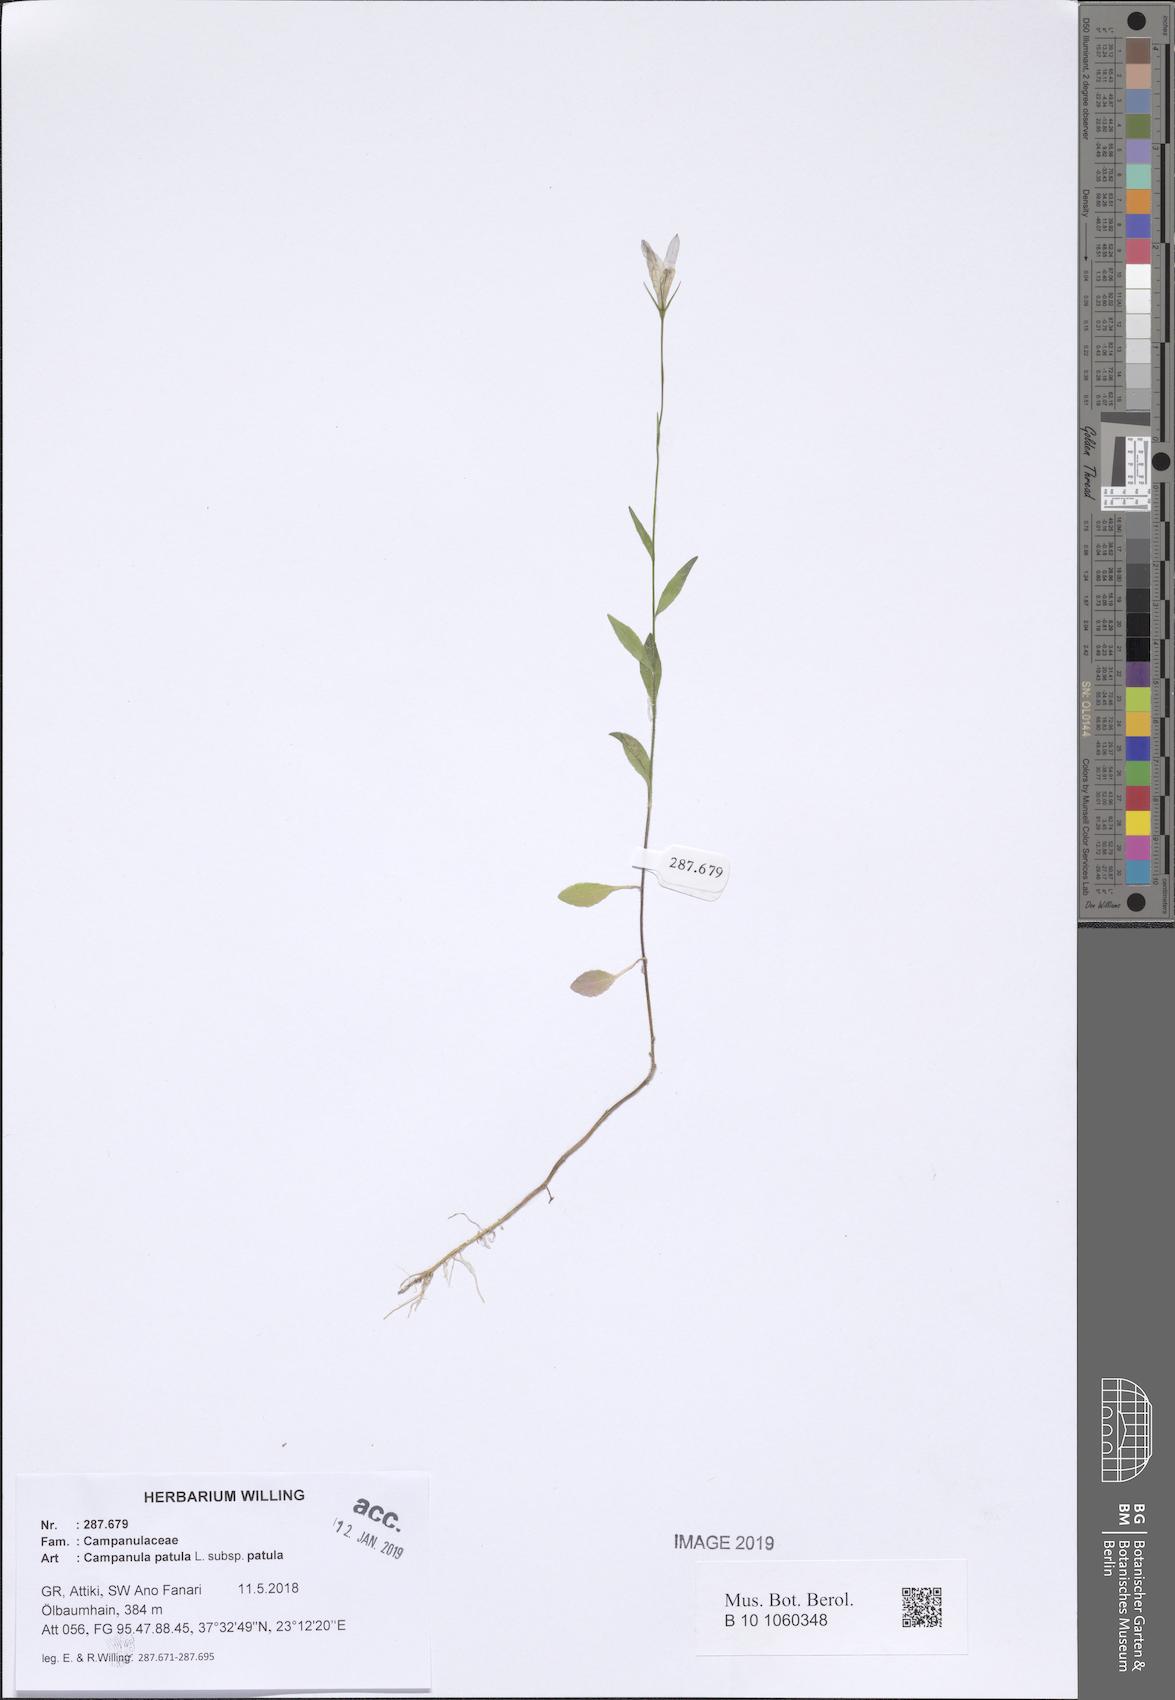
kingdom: Plantae
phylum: Tracheophyta
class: Magnoliopsida
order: Asterales
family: Campanulaceae
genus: Campanula
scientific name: Campanula patula
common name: Spreading bellflower
